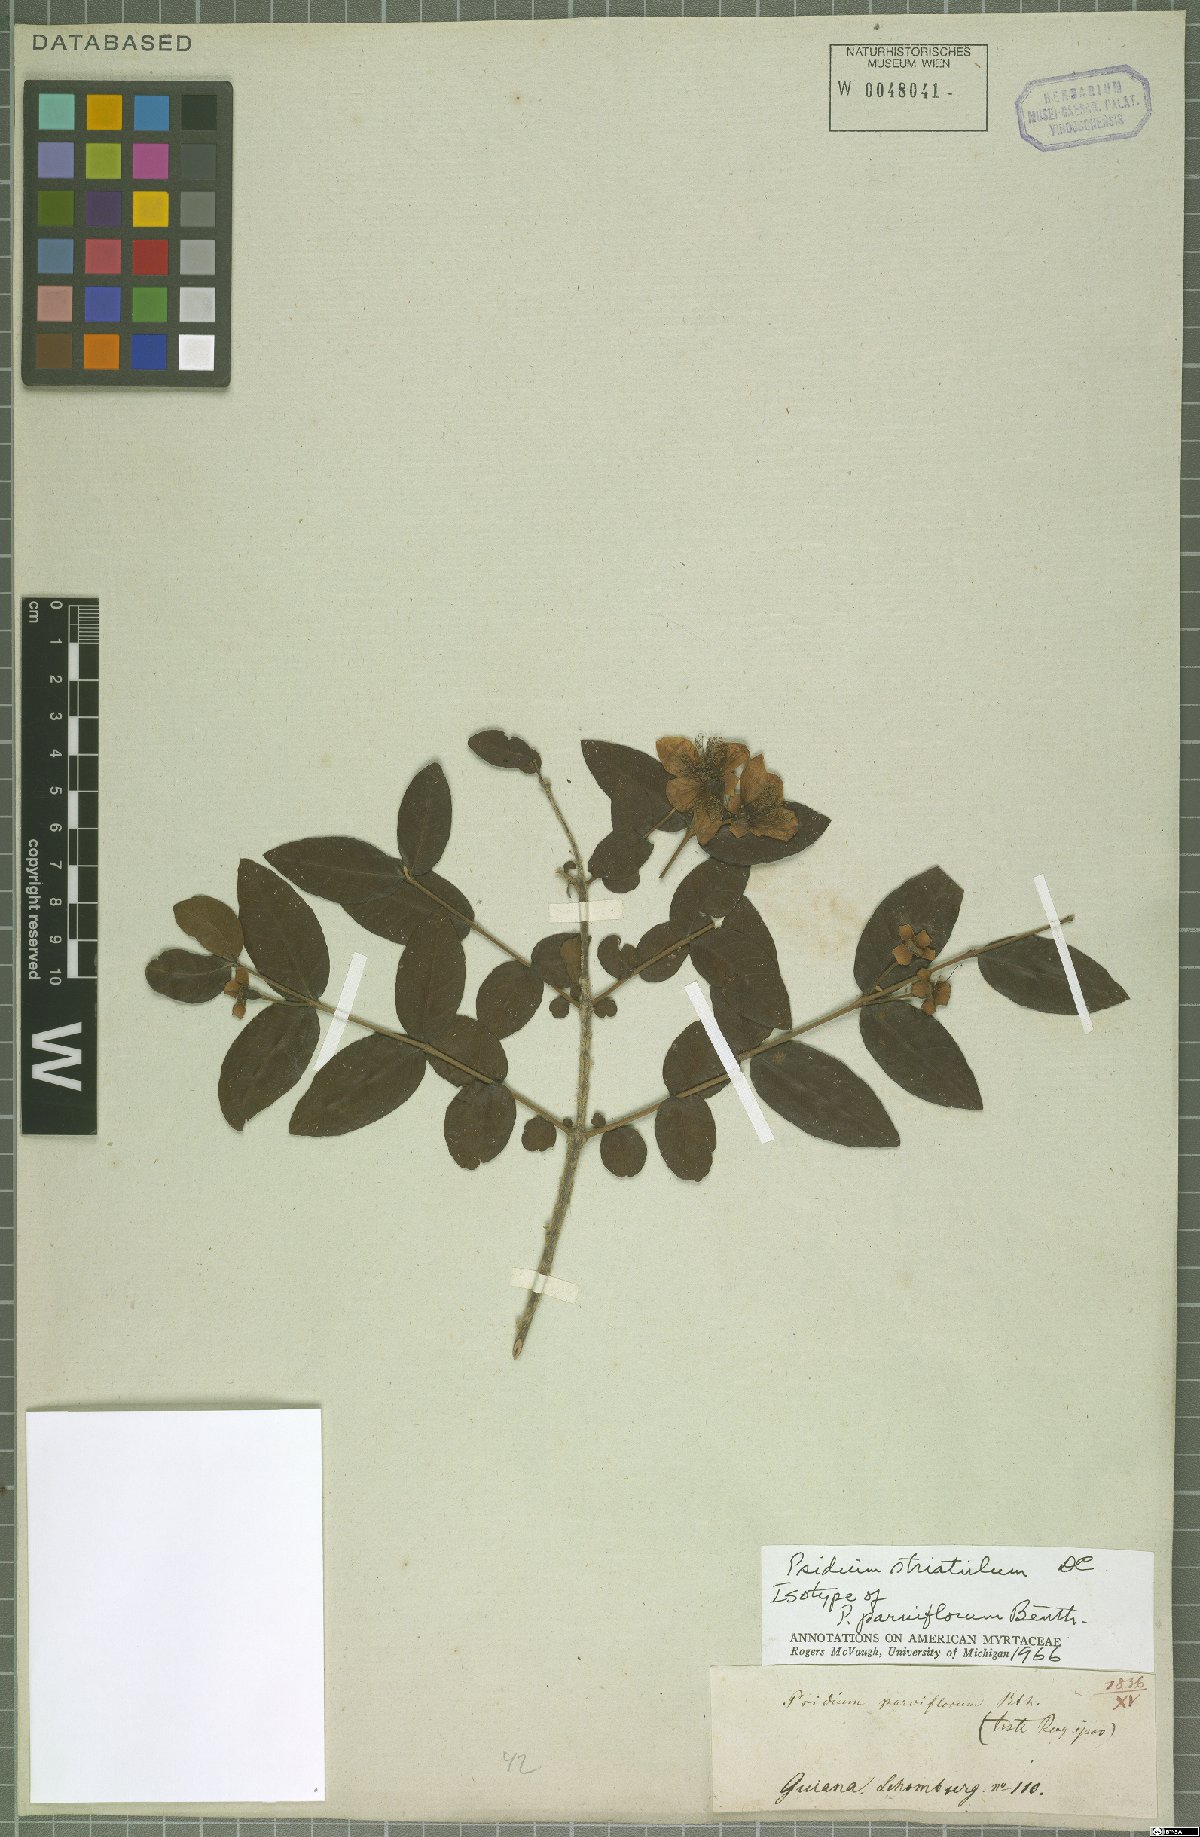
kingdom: Plantae
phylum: Tracheophyta
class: Magnoliopsida
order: Myrtales
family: Myrtaceae
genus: Psidium
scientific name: Psidium striatulum
